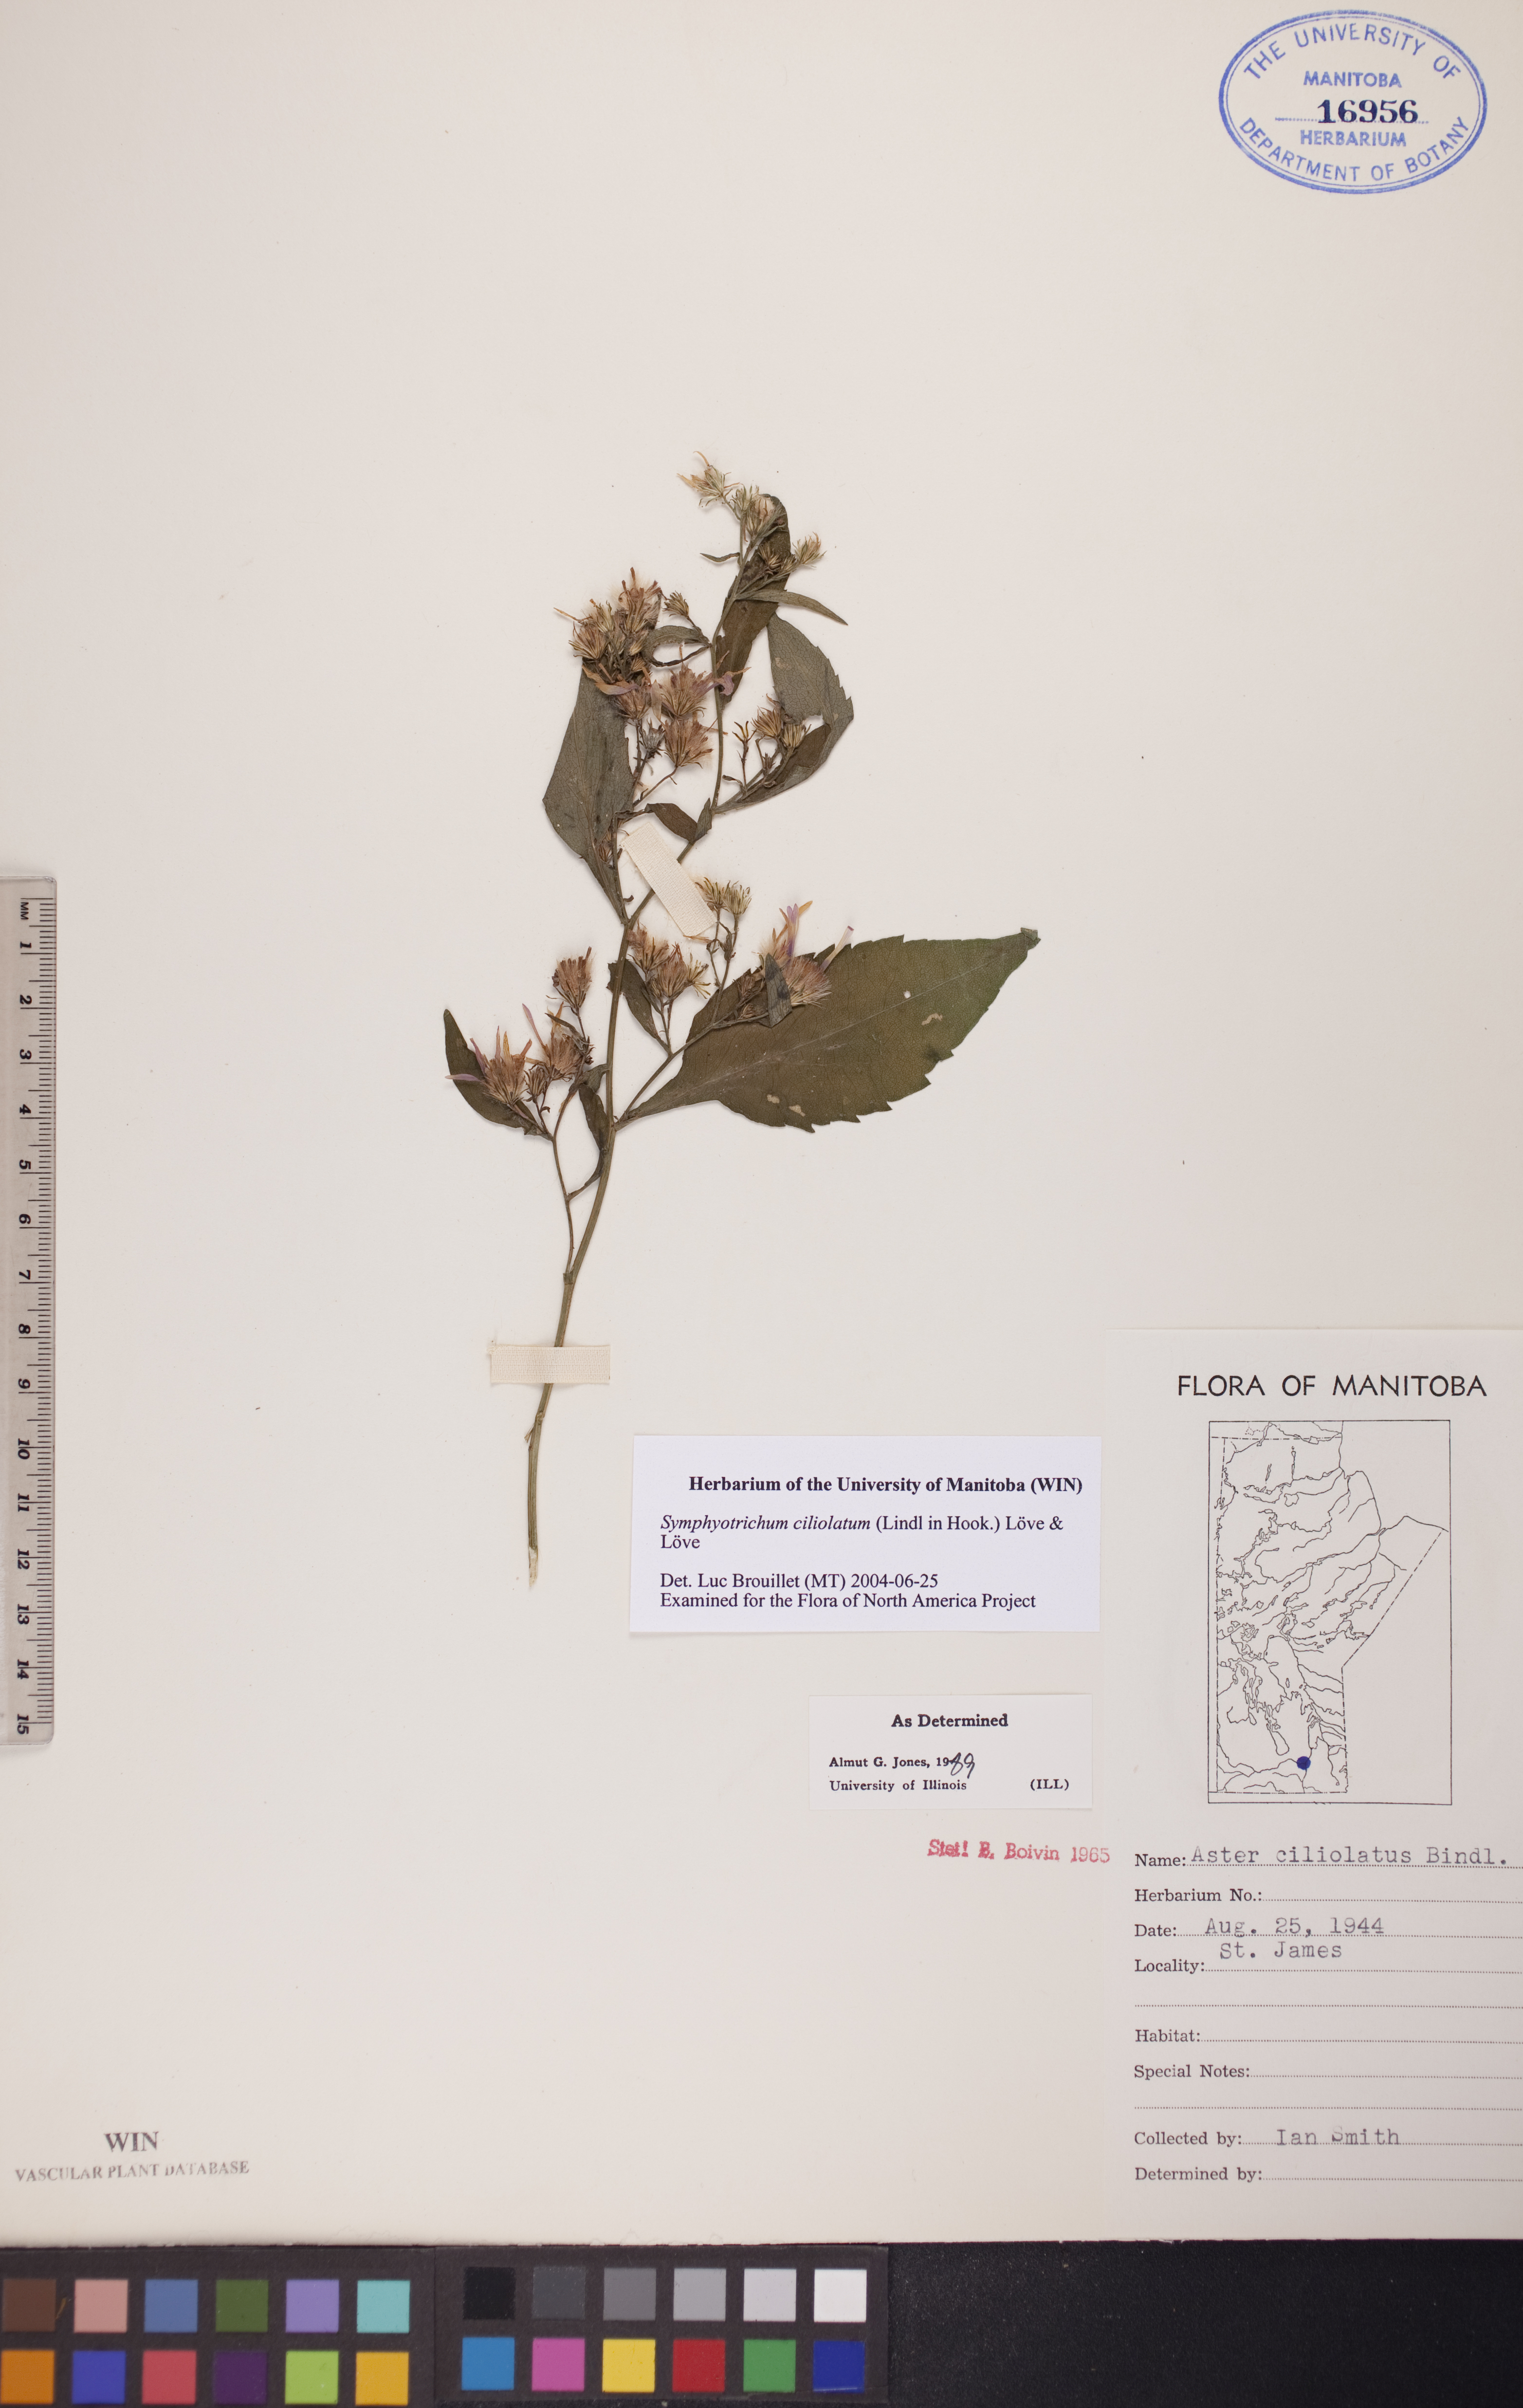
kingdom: Plantae
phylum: Tracheophyta
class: Magnoliopsida
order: Asterales
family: Asteraceae
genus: Symphyotrichum
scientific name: Symphyotrichum ciliolatum
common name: Fringed blue aster
